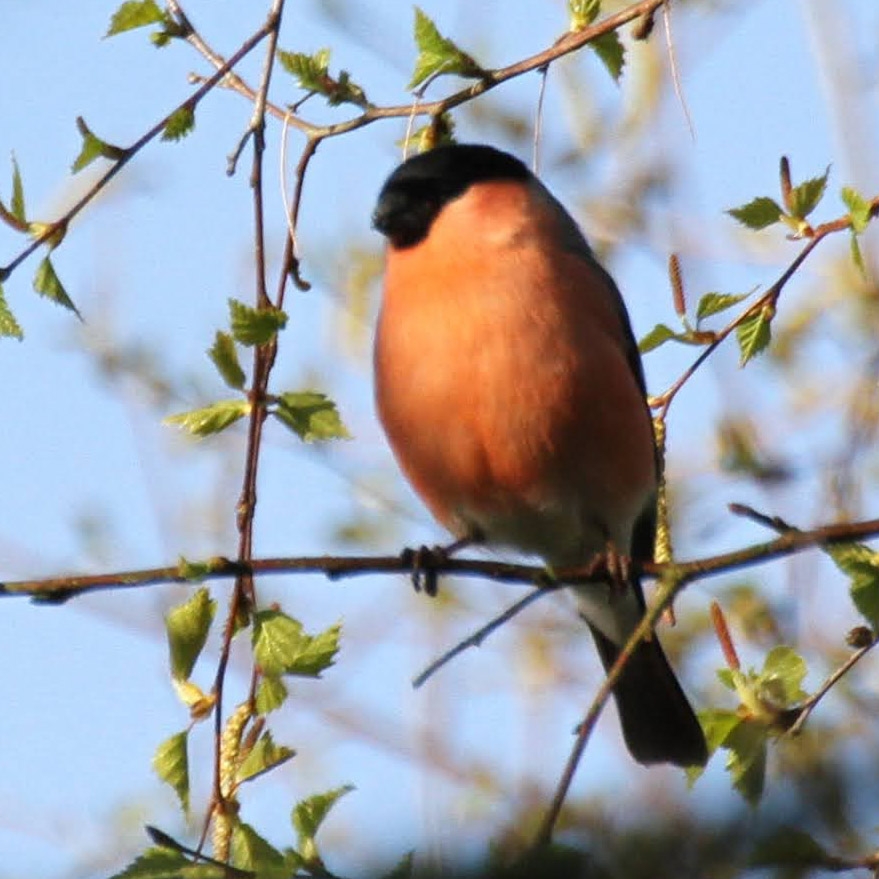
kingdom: Animalia
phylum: Chordata
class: Aves
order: Passeriformes
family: Fringillidae
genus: Pyrrhula
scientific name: Pyrrhula pyrrhula
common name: Dompap
